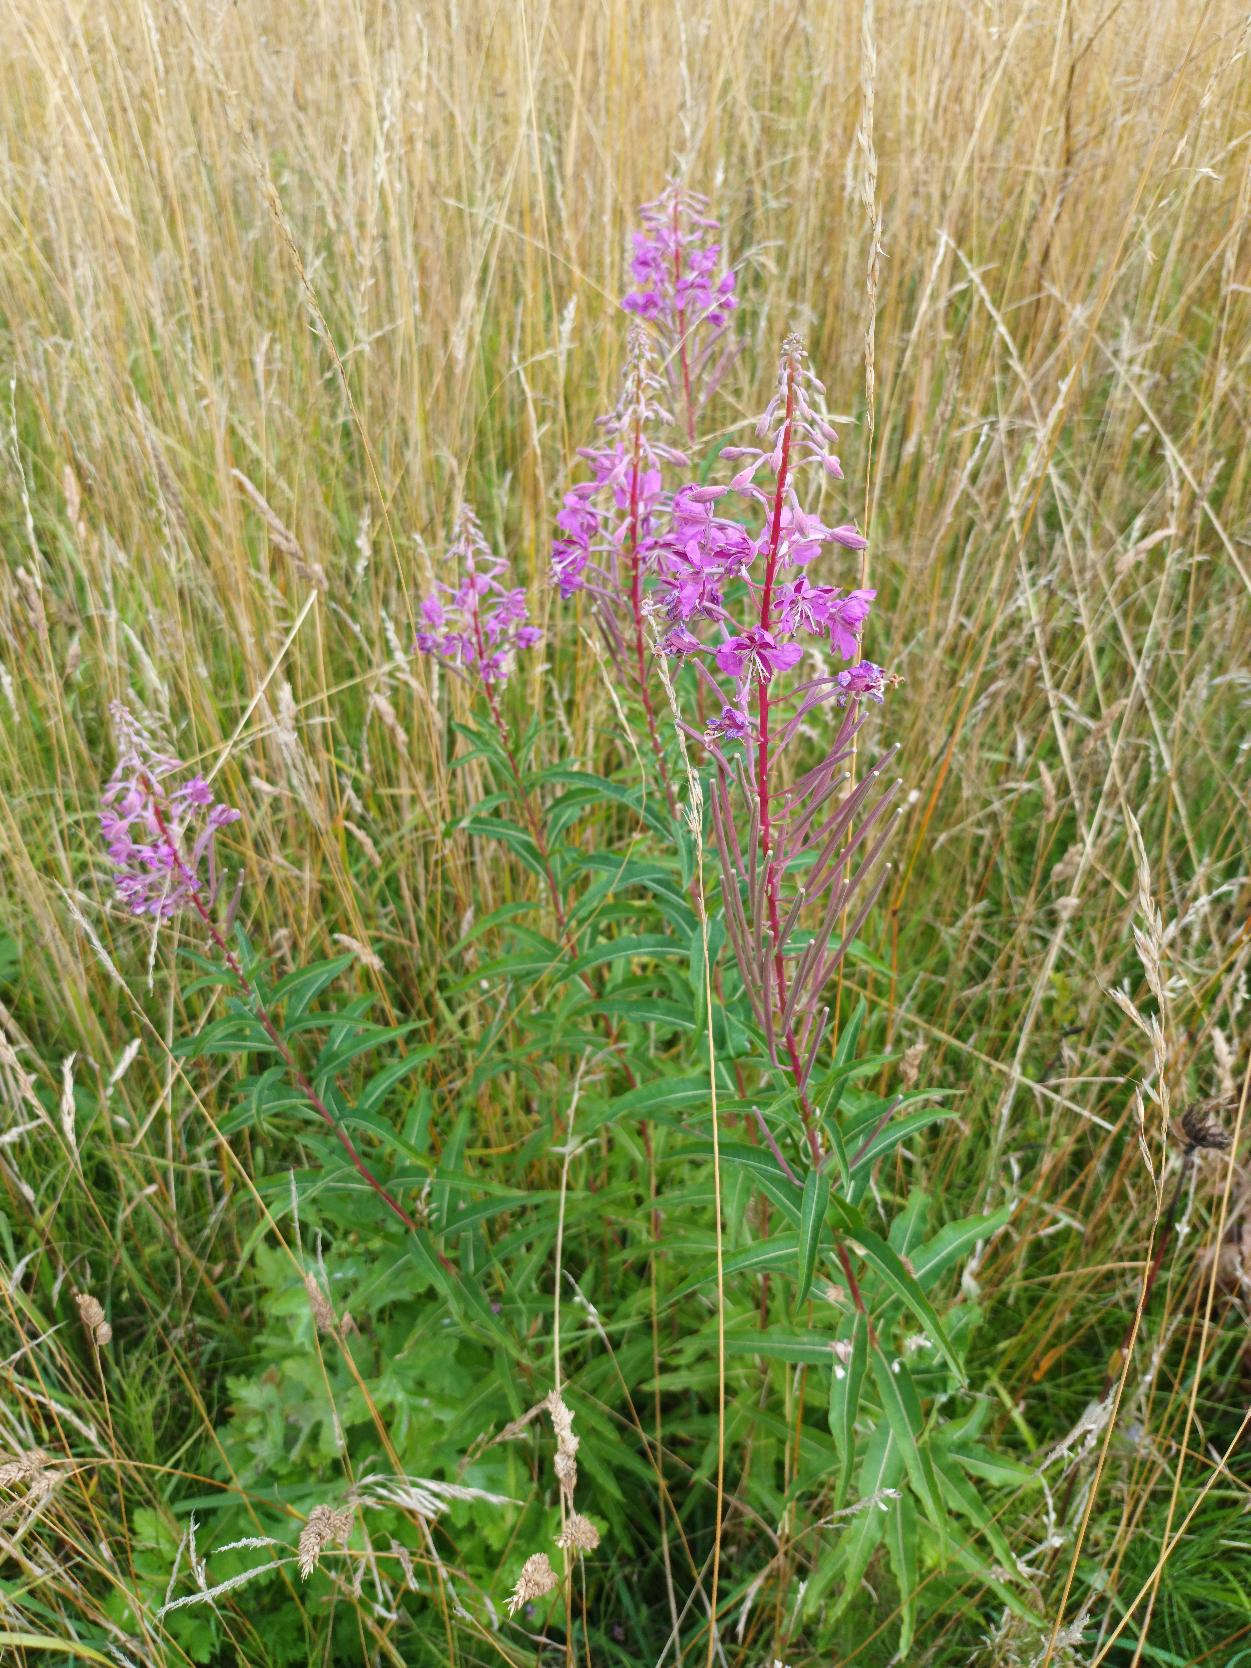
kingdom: Plantae
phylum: Tracheophyta
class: Magnoliopsida
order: Myrtales
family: Onagraceae
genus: Chamaenerion
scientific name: Chamaenerion angustifolium
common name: Gederams
